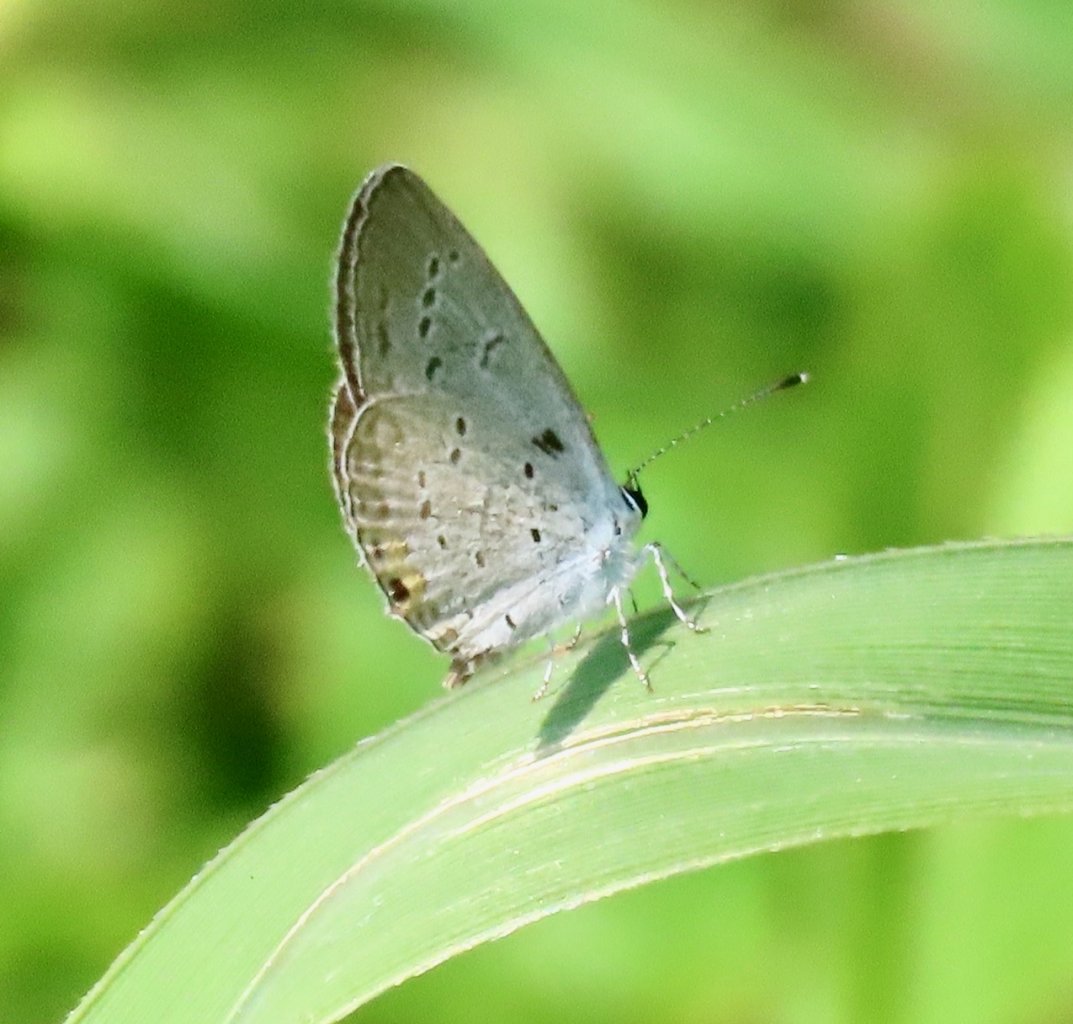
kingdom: Animalia
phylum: Arthropoda
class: Insecta
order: Lepidoptera
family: Lycaenidae
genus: Elkalyce
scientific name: Elkalyce comyntas
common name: Eastern Tailed-Blue
